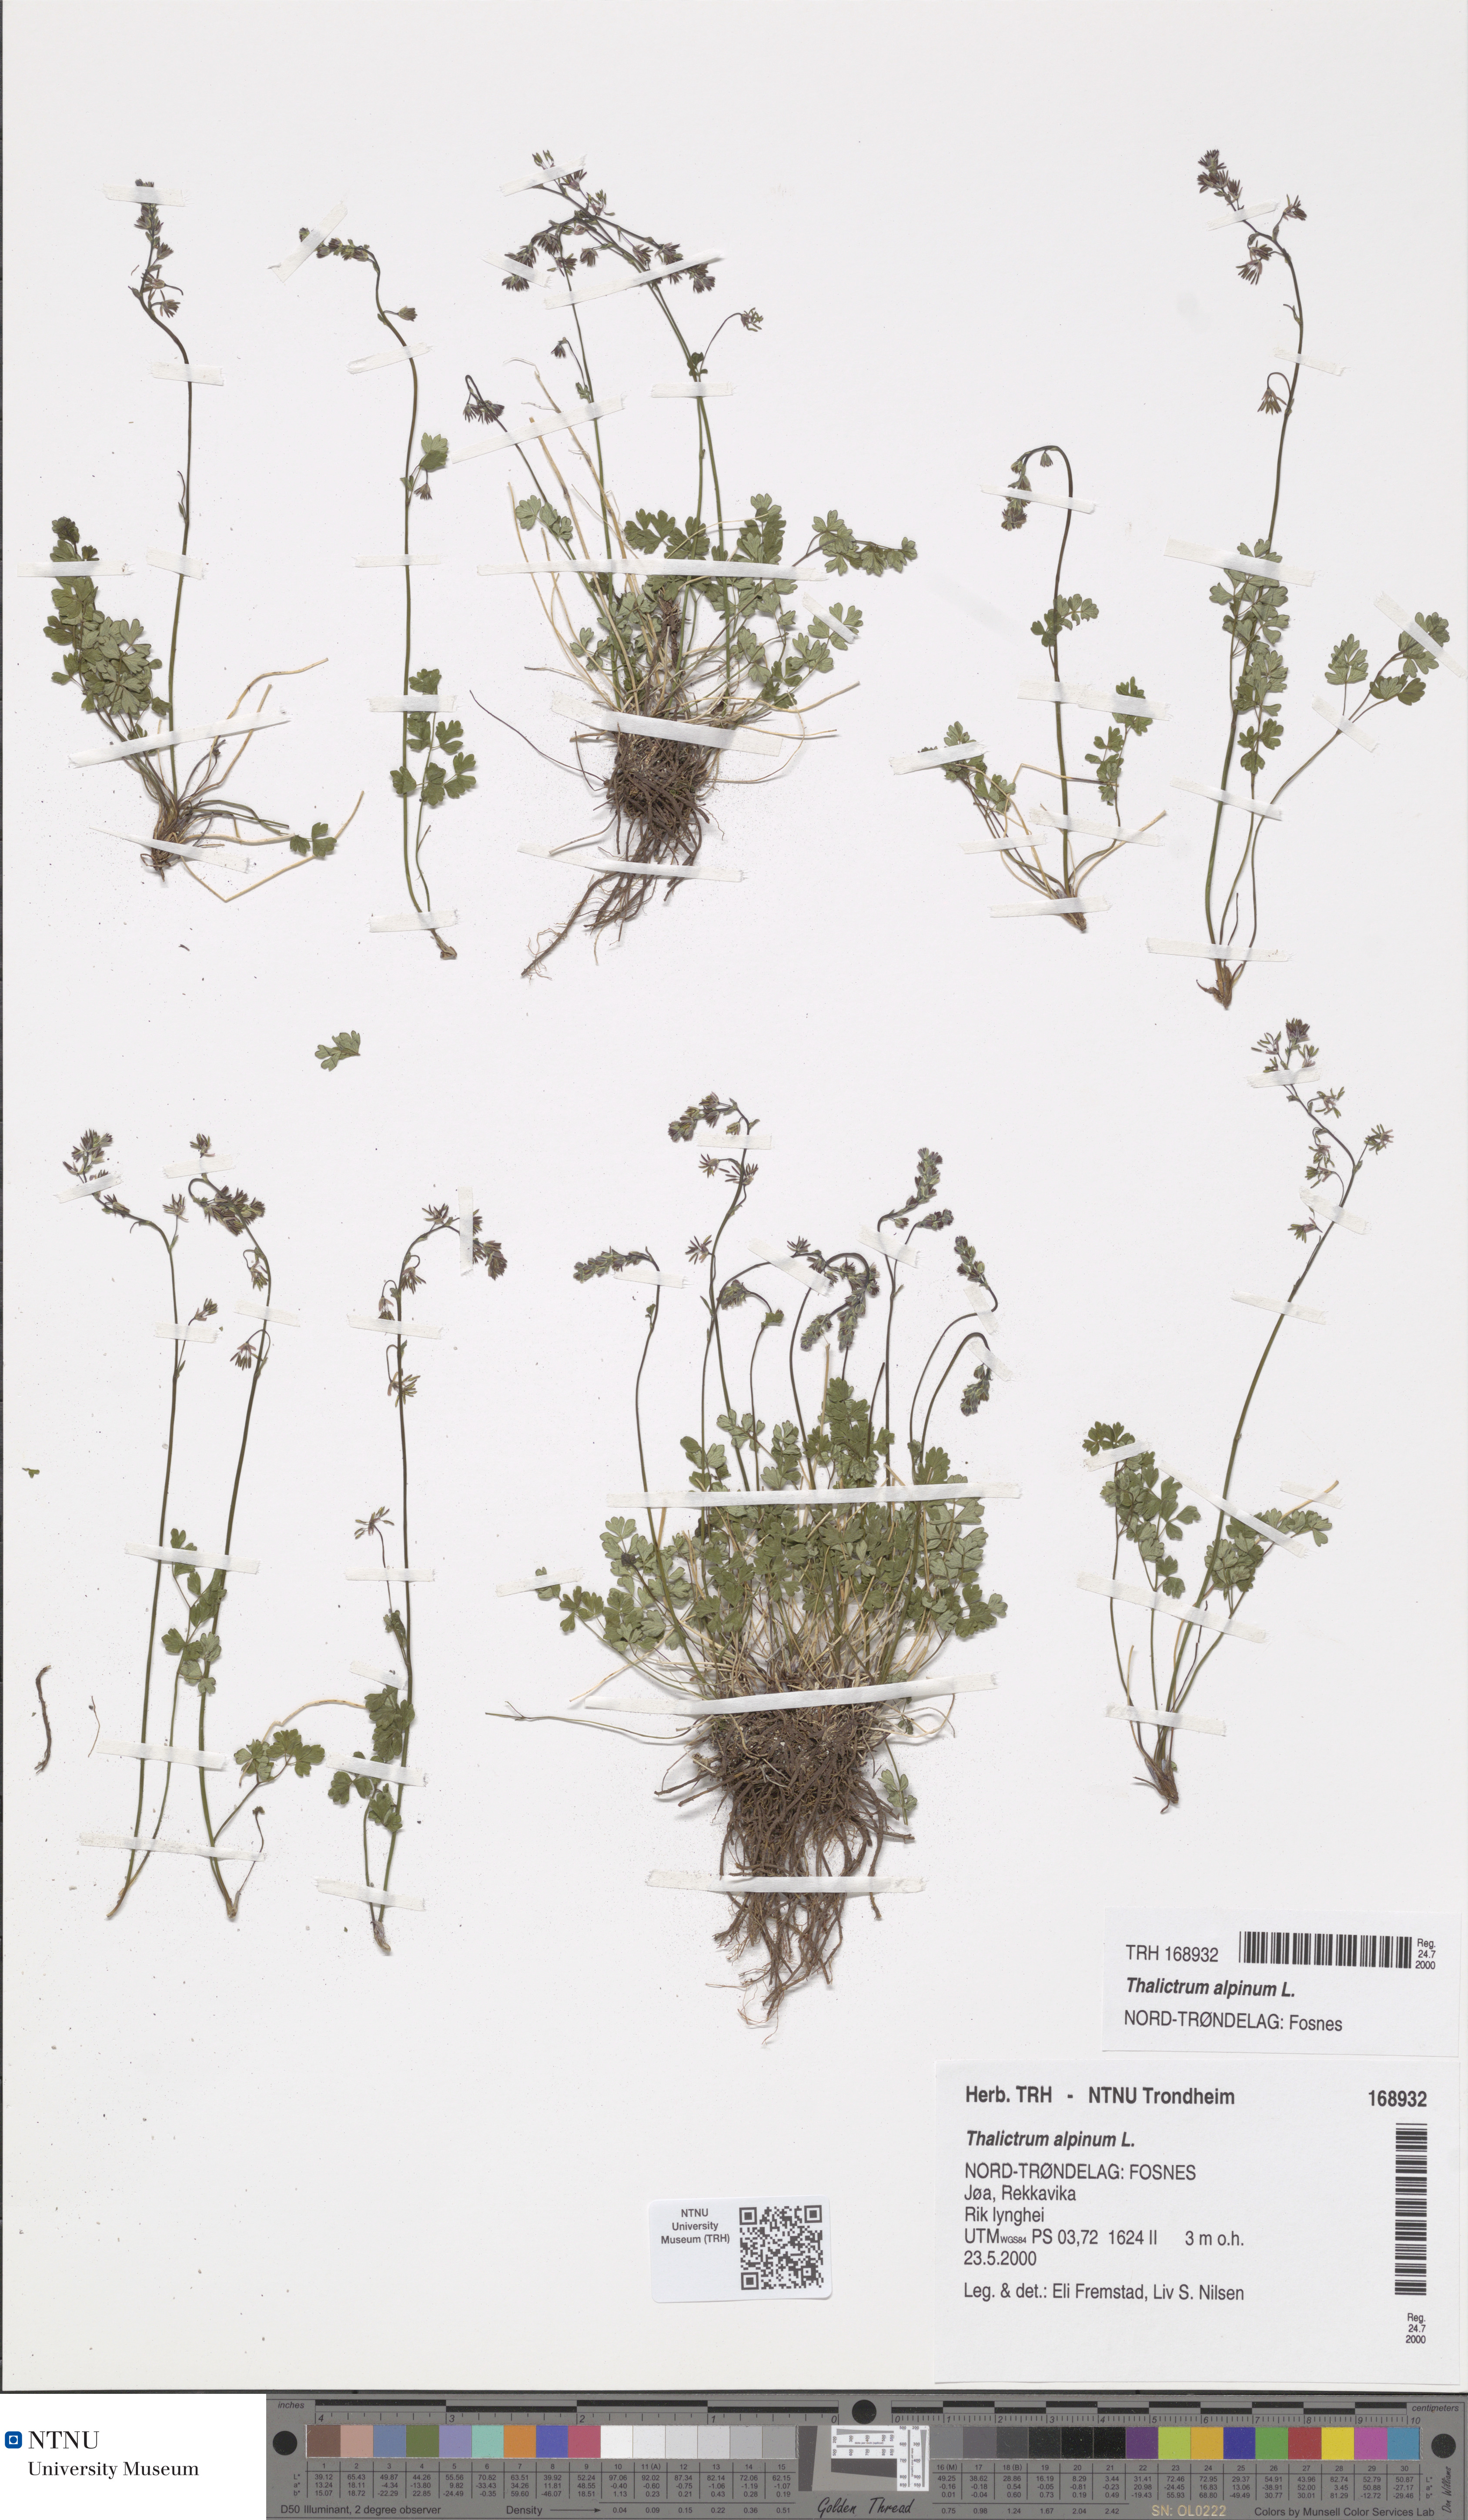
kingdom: Plantae
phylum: Tracheophyta
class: Magnoliopsida
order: Ranunculales
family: Ranunculaceae
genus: Thalictrum
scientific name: Thalictrum alpinum
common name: Alpine meadow-rue
